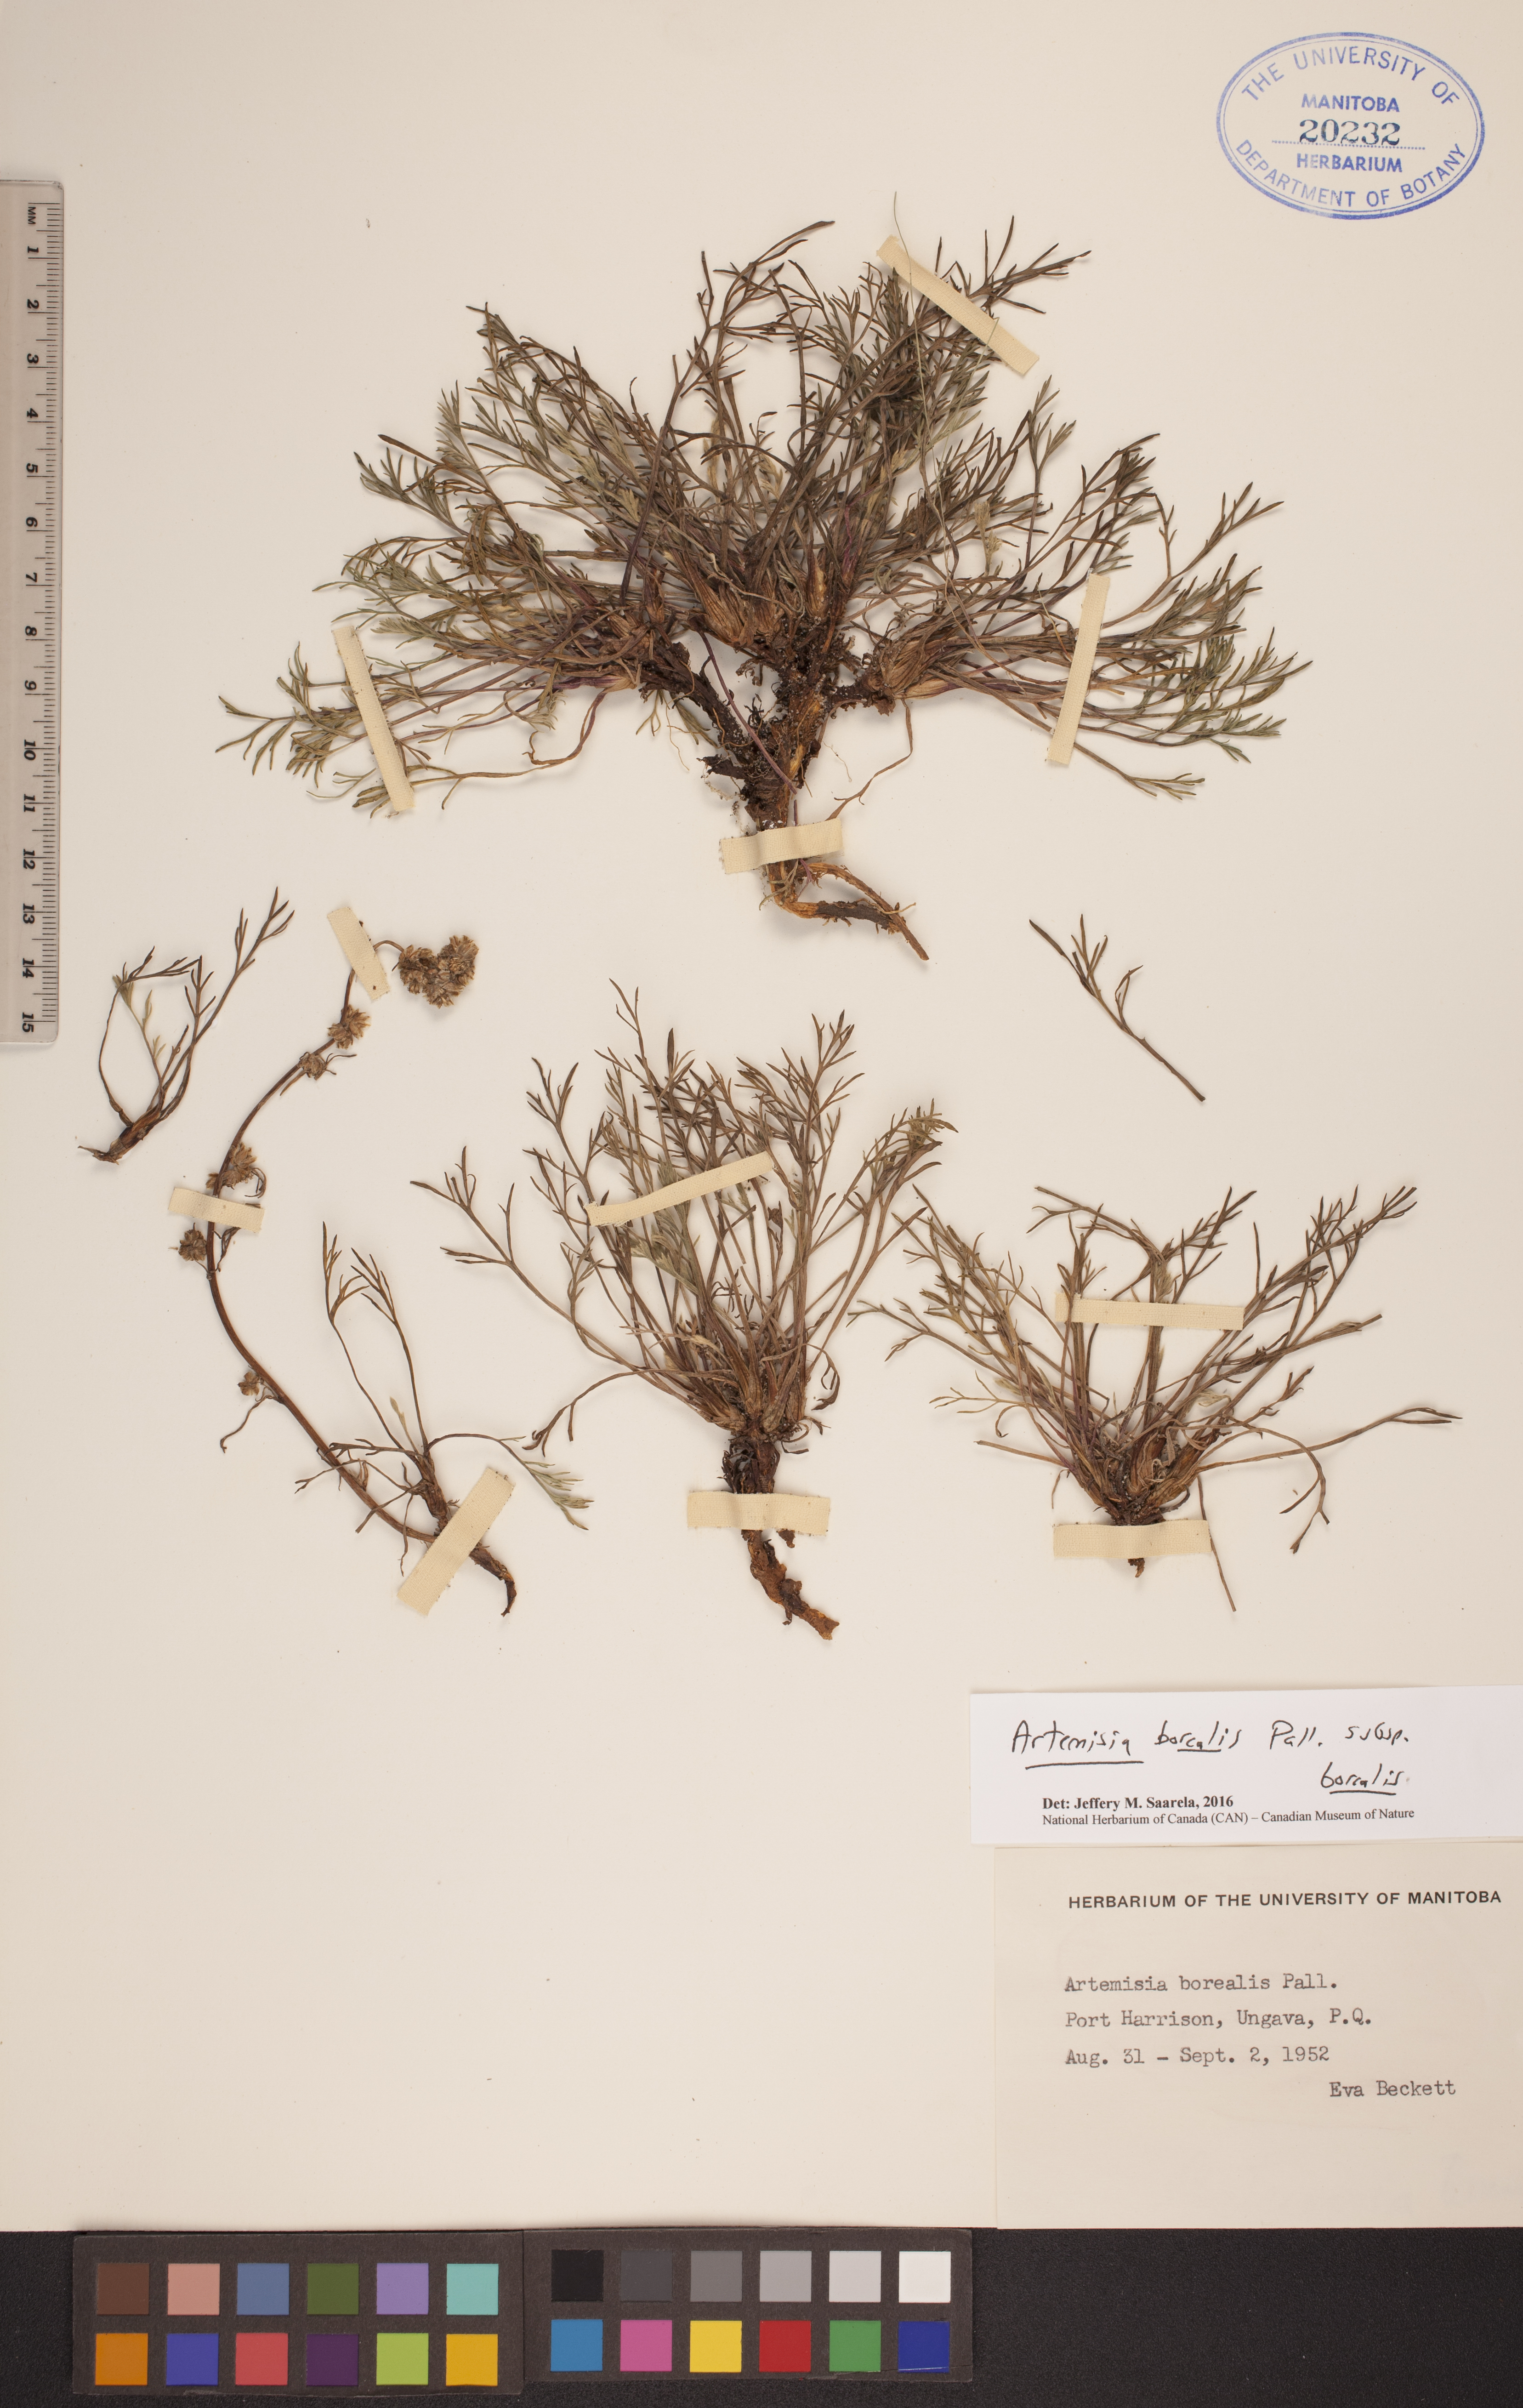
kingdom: Plantae
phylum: Tracheophyta
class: Magnoliopsida
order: Asterales
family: Asteraceae
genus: Artemisia
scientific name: Artemisia borealis
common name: Boreal sage
